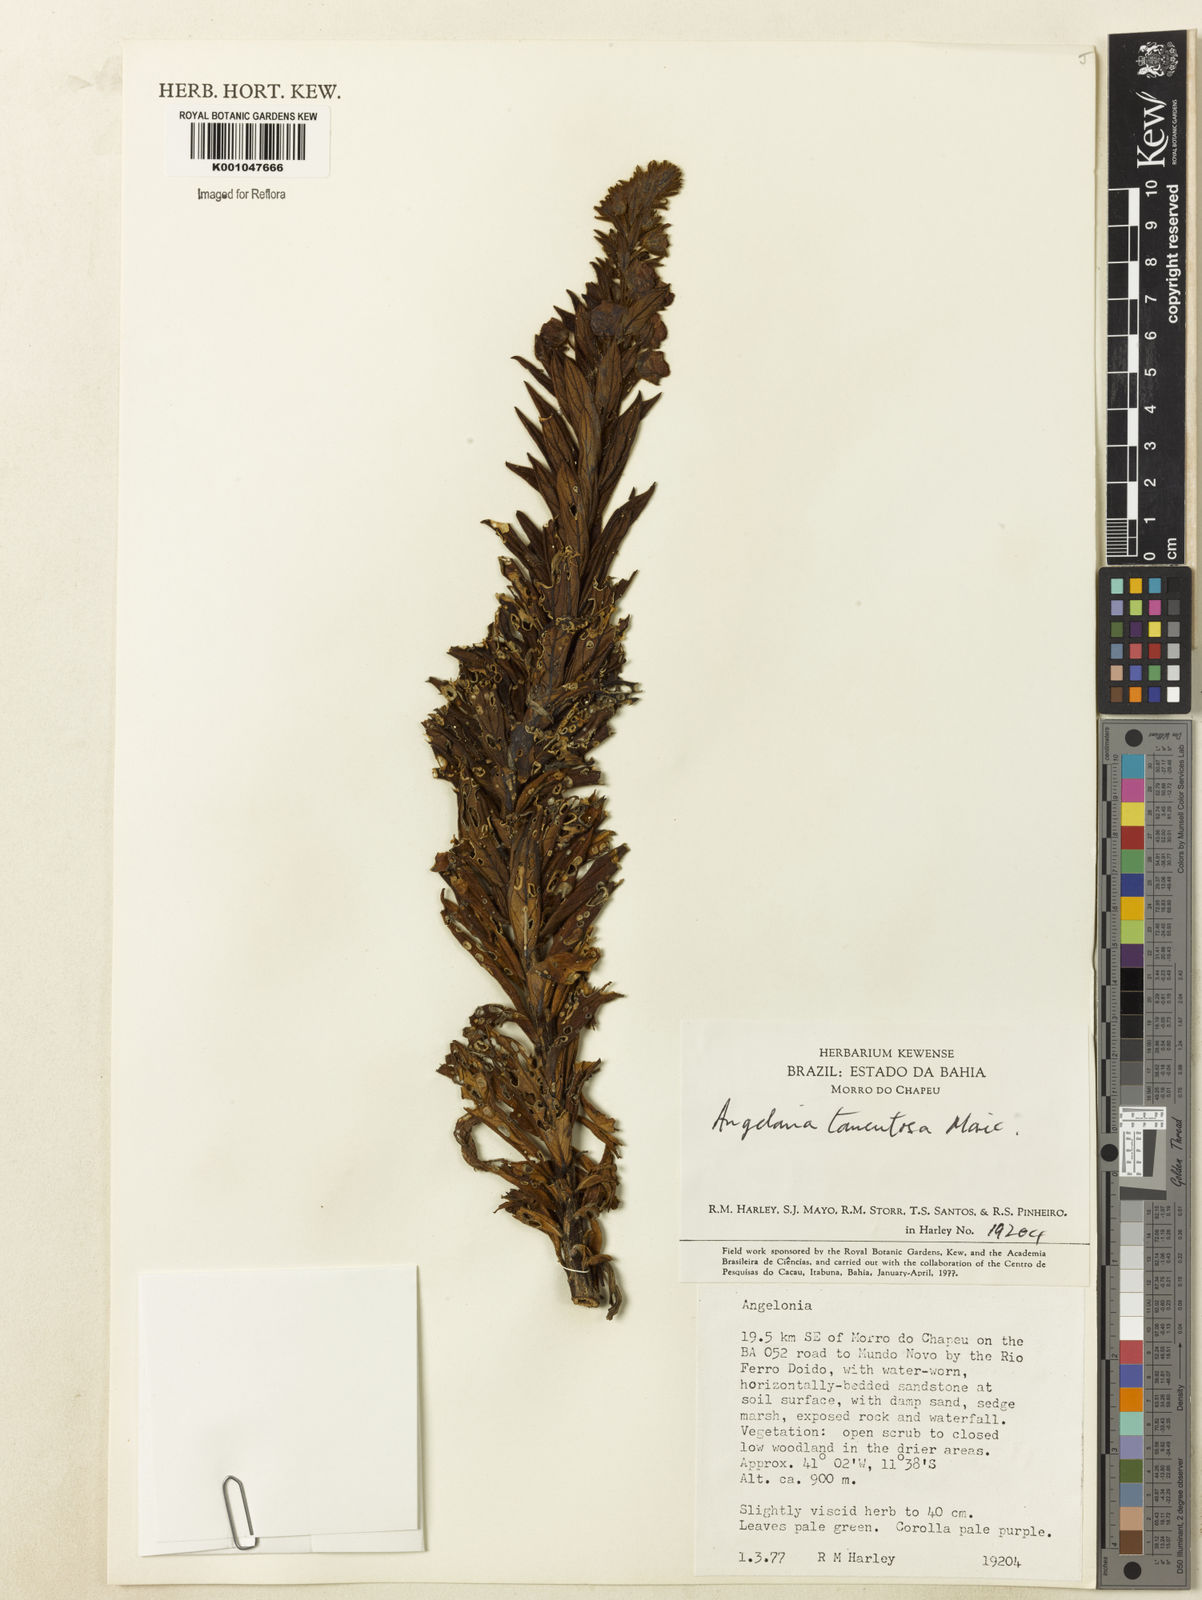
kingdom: Plantae
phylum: Tracheophyta
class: Magnoliopsida
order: Lamiales
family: Plantaginaceae
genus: Angelonia
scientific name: Angelonia tomentosa
